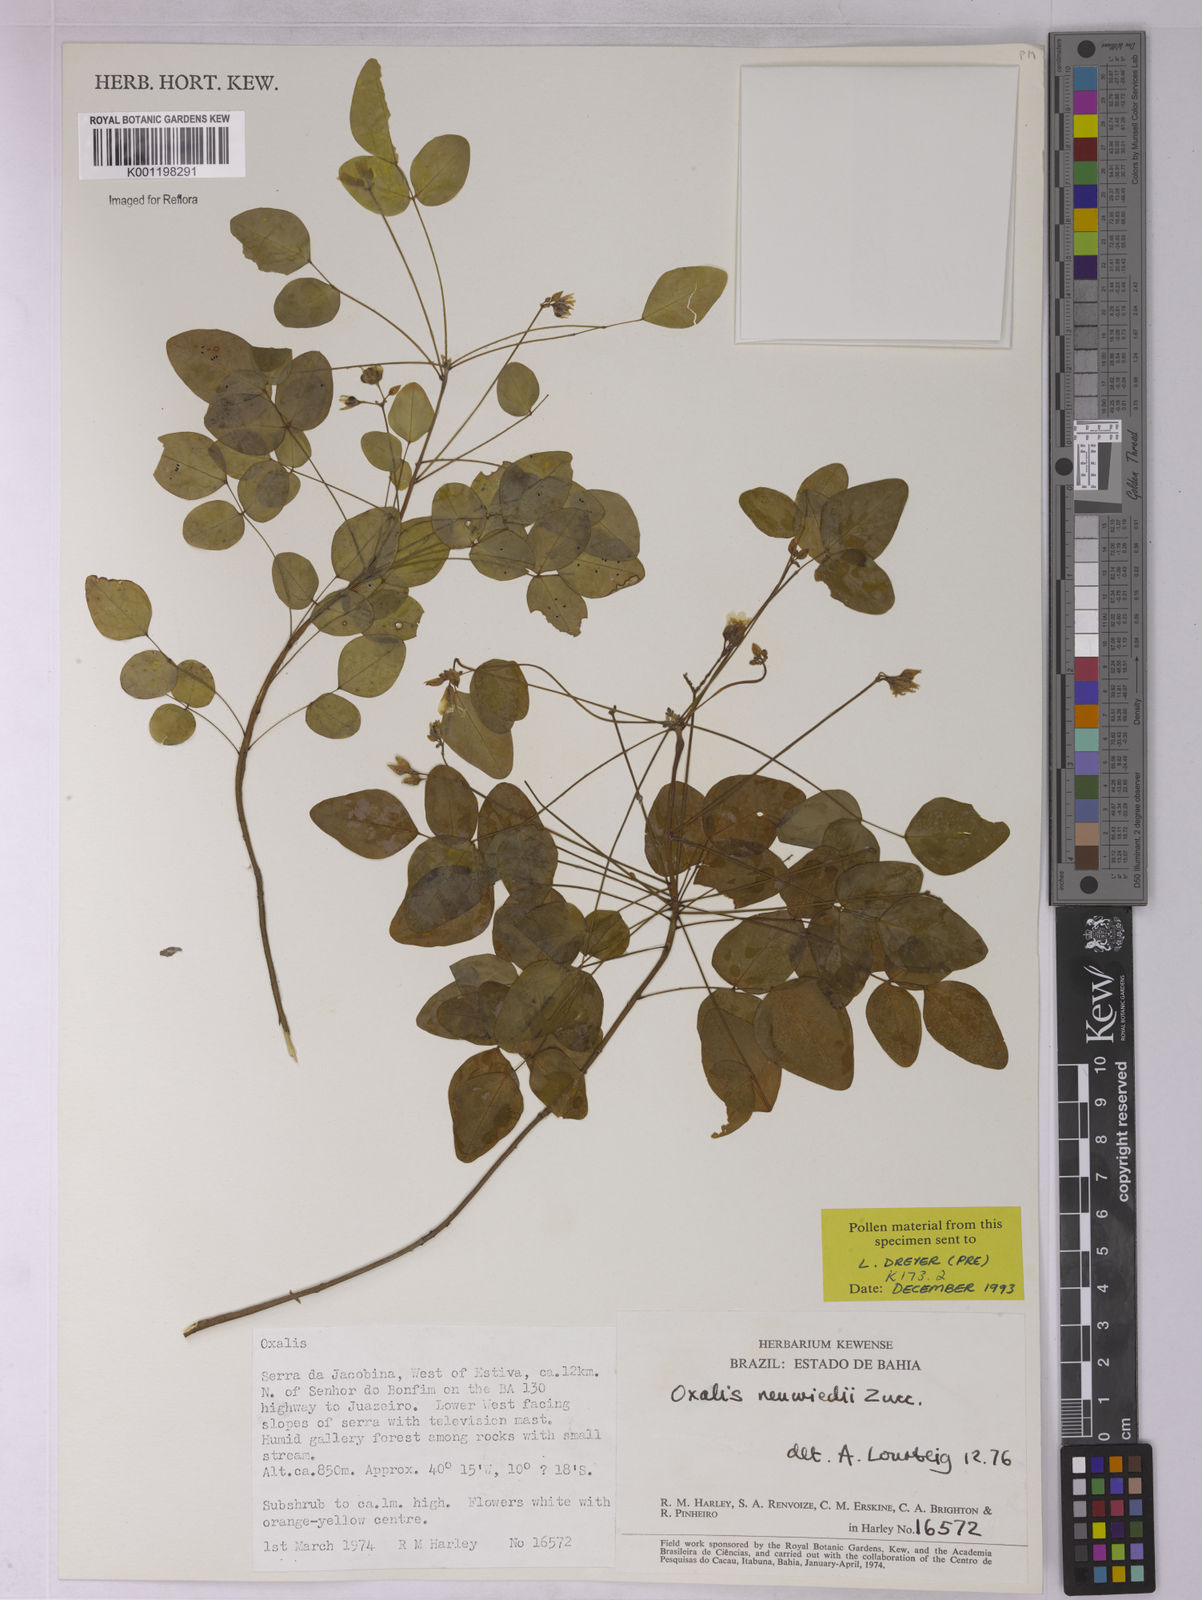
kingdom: Plantae
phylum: Tracheophyta
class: Magnoliopsida
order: Oxalidales
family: Oxalidaceae
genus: Oxalis
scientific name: Oxalis neuwiedii
